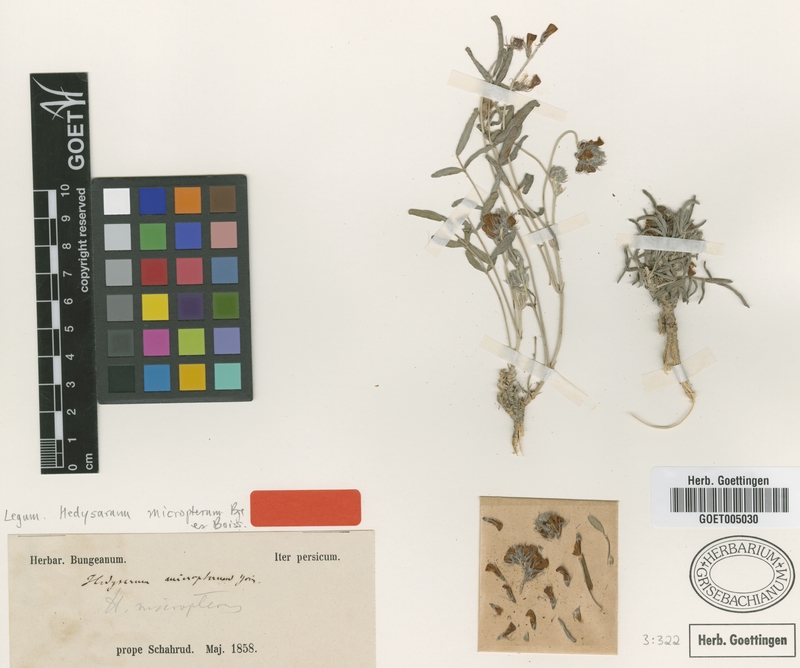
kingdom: Plantae
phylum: Tracheophyta
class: Magnoliopsida
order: Fabales
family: Fabaceae
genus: Hedysarum
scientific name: Hedysarum micropterum
